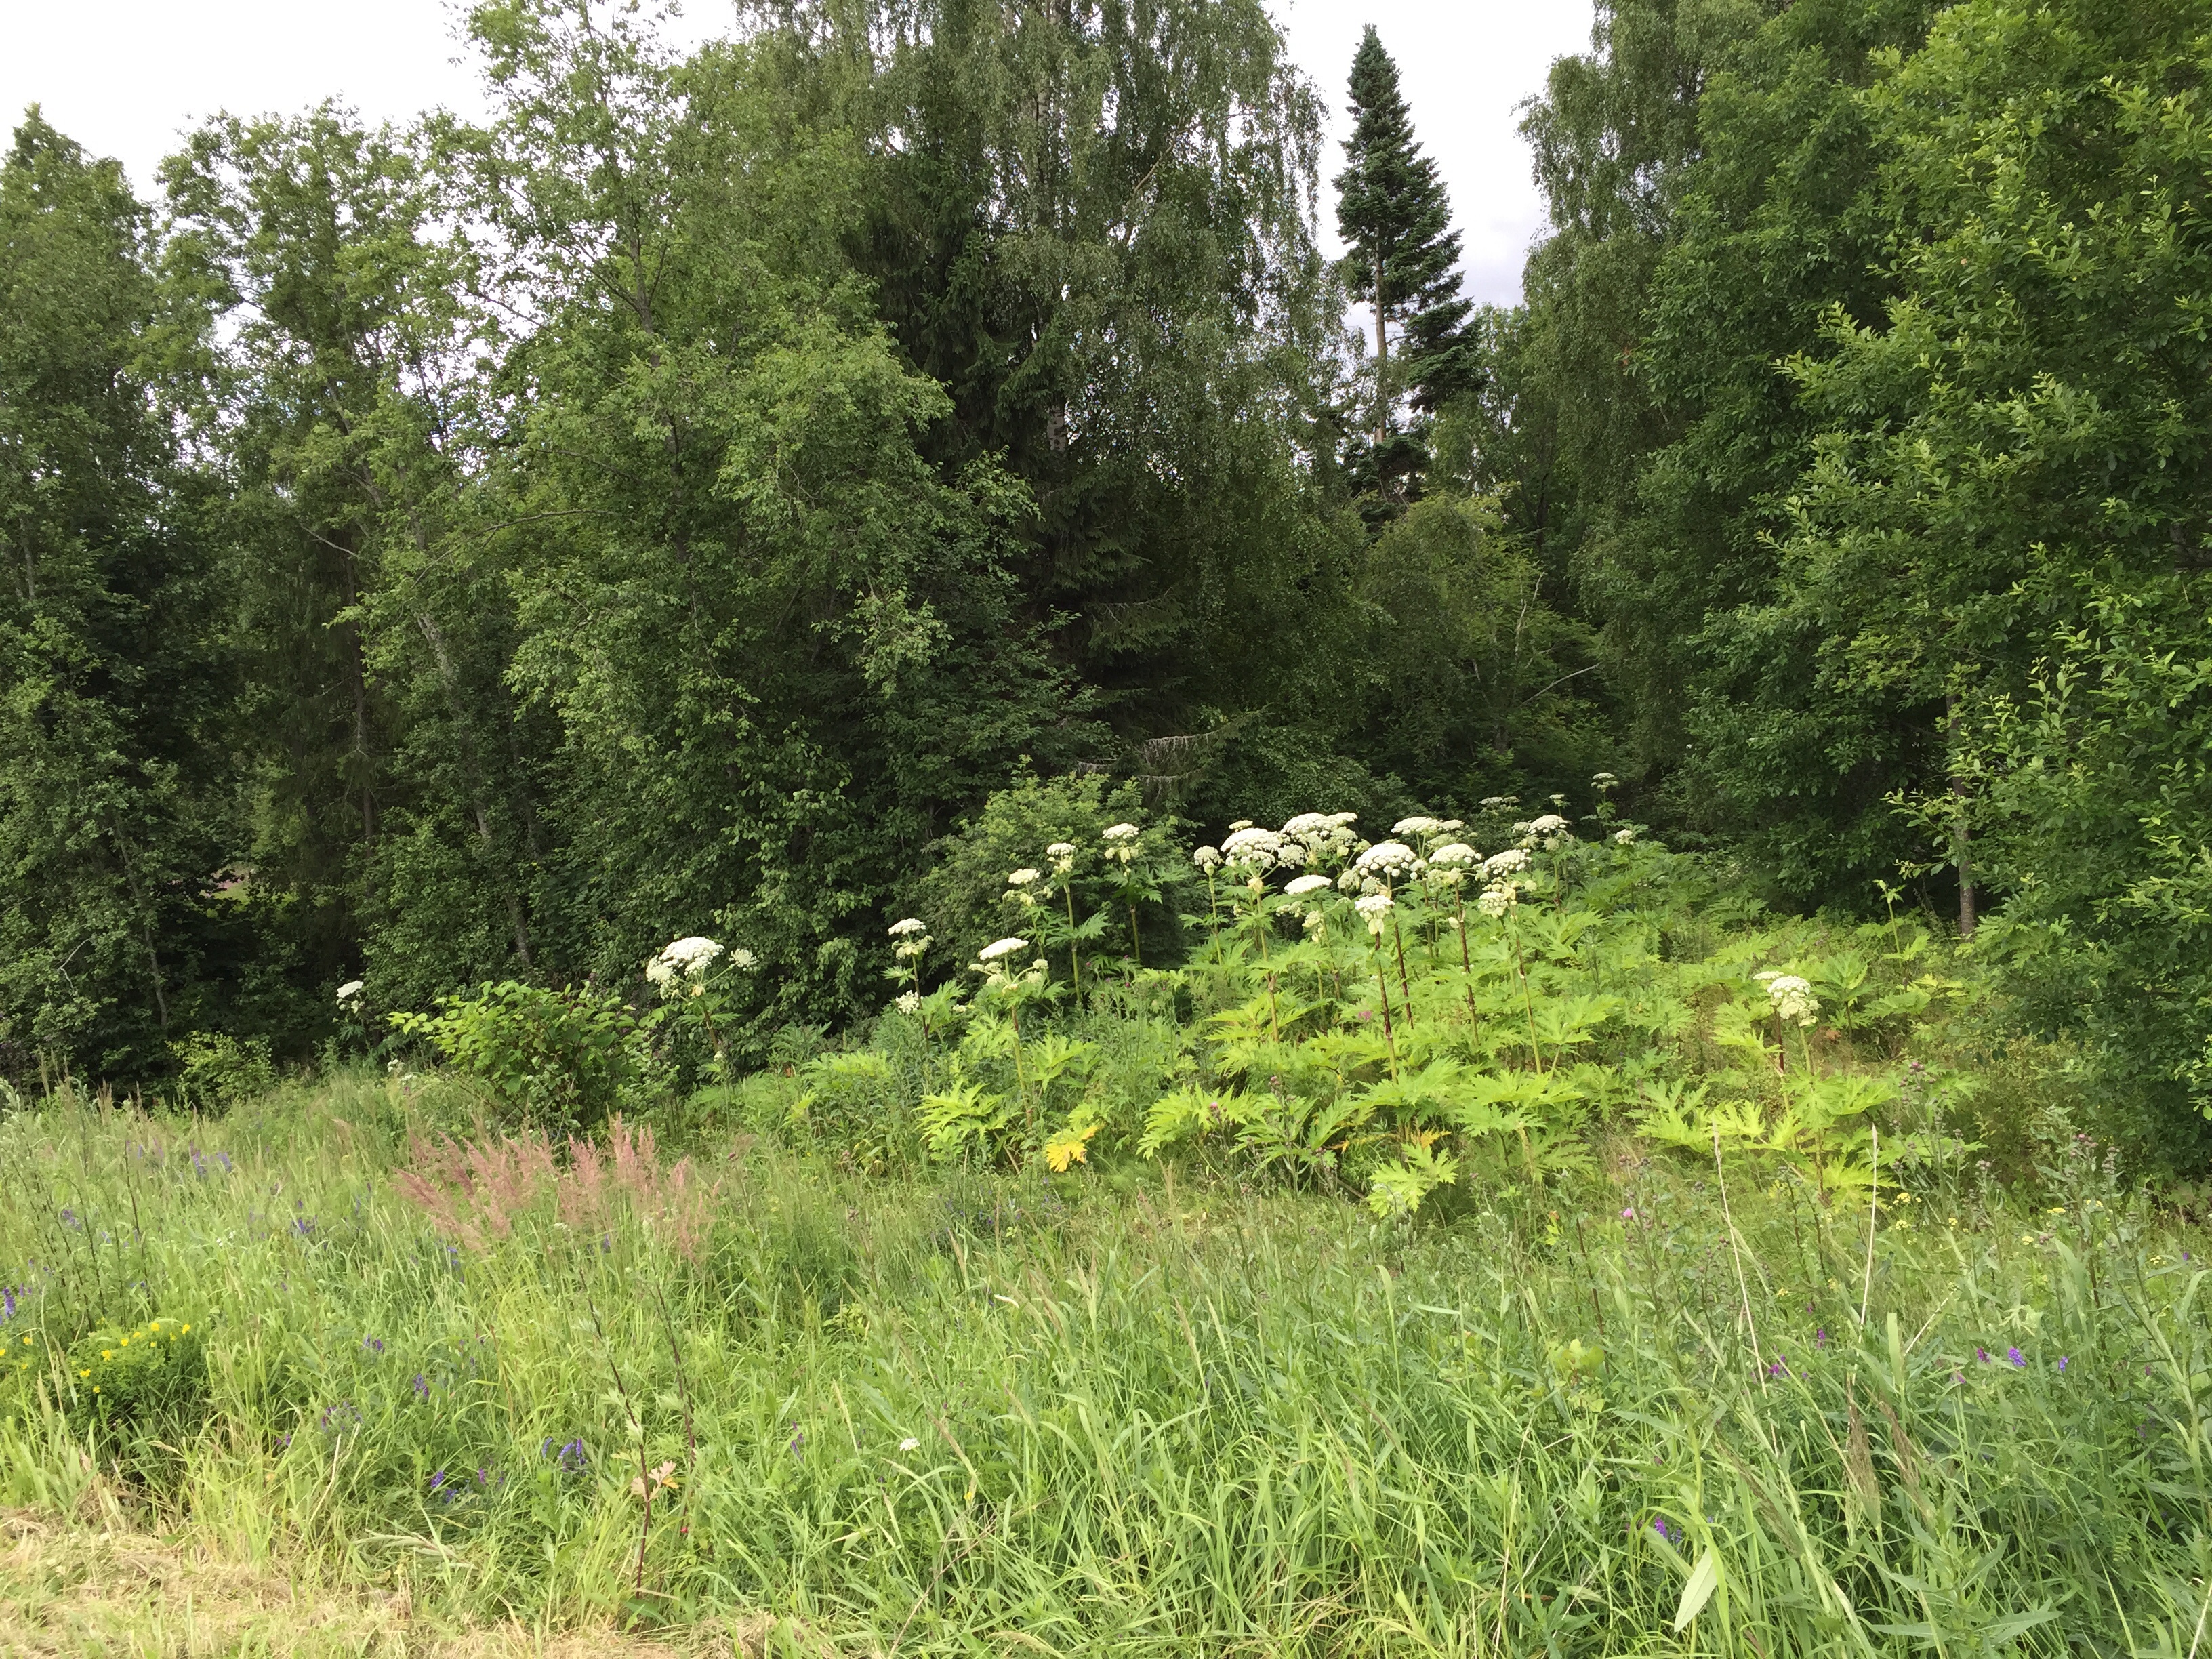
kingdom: Plantae
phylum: Tracheophyta
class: Magnoliopsida
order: Apiales
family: Apiaceae
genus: Heracleum
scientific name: Heracleum
